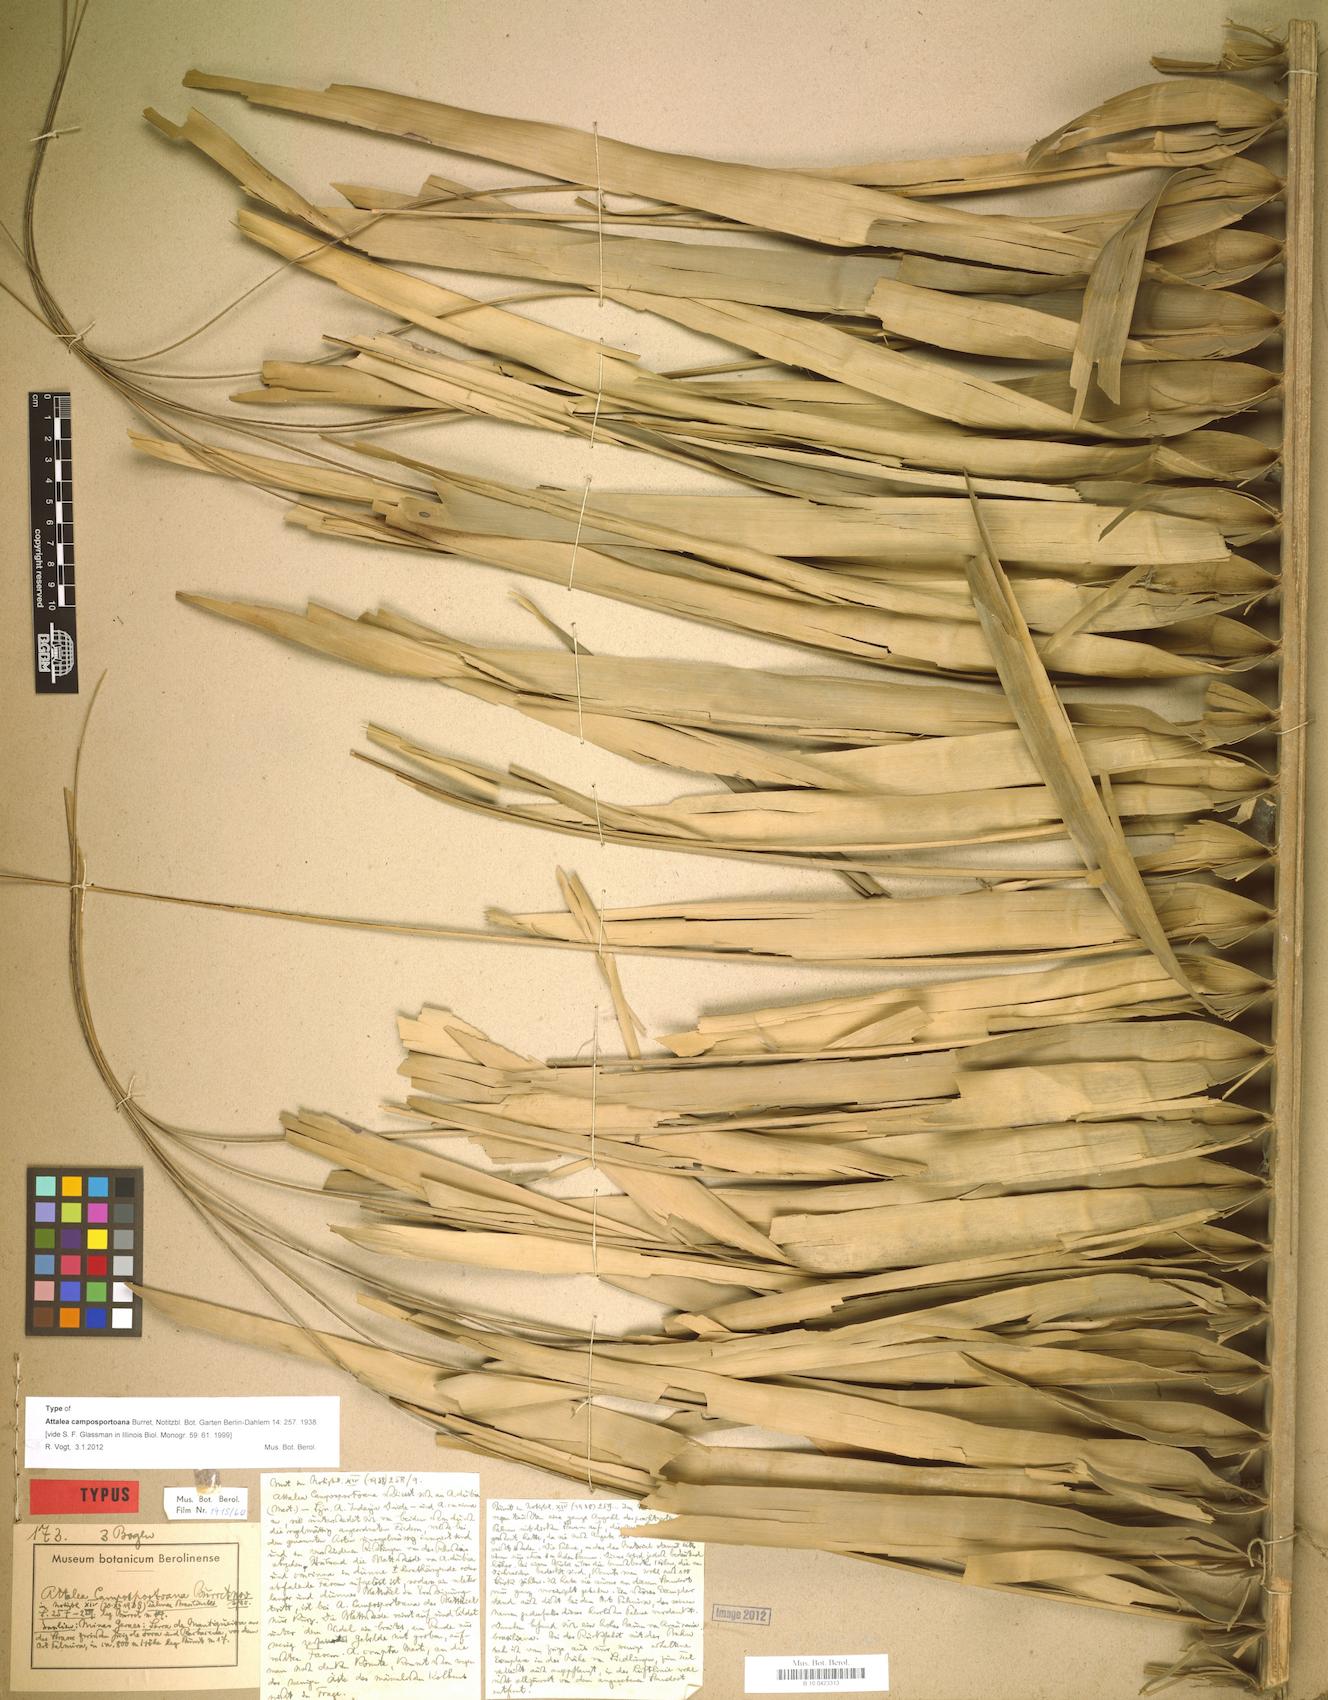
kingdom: Plantae
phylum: Tracheophyta
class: Liliopsida
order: Arecales
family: Arecaceae
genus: Attalea
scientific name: Attalea apoda
